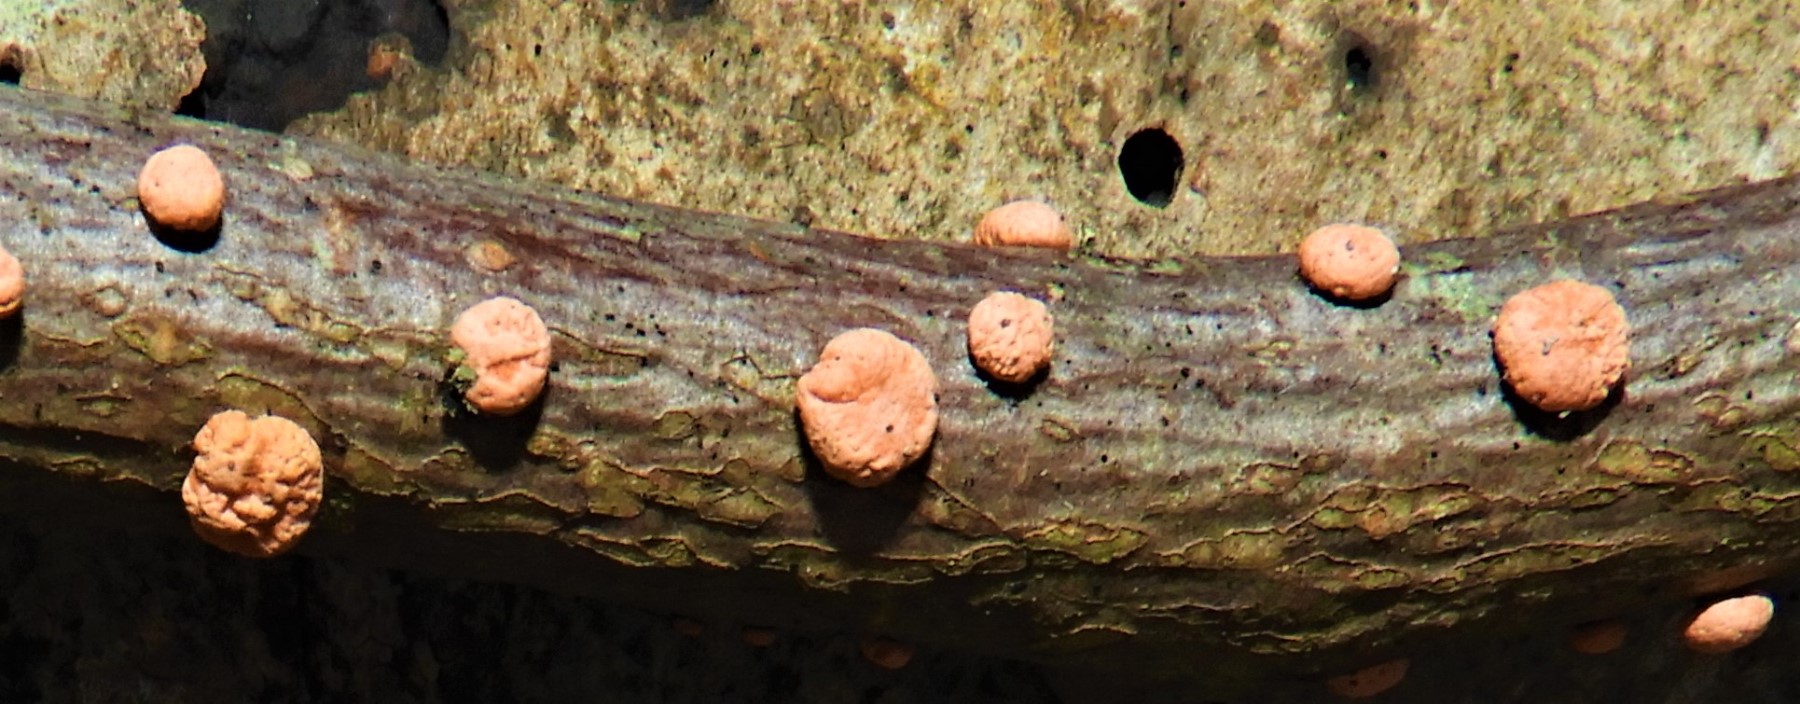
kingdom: Fungi
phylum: Ascomycota
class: Sordariomycetes
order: Hypocreales
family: Nectriaceae
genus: Nectria
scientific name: Nectria cinnabarina
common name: almindelig cinnobersvamp
